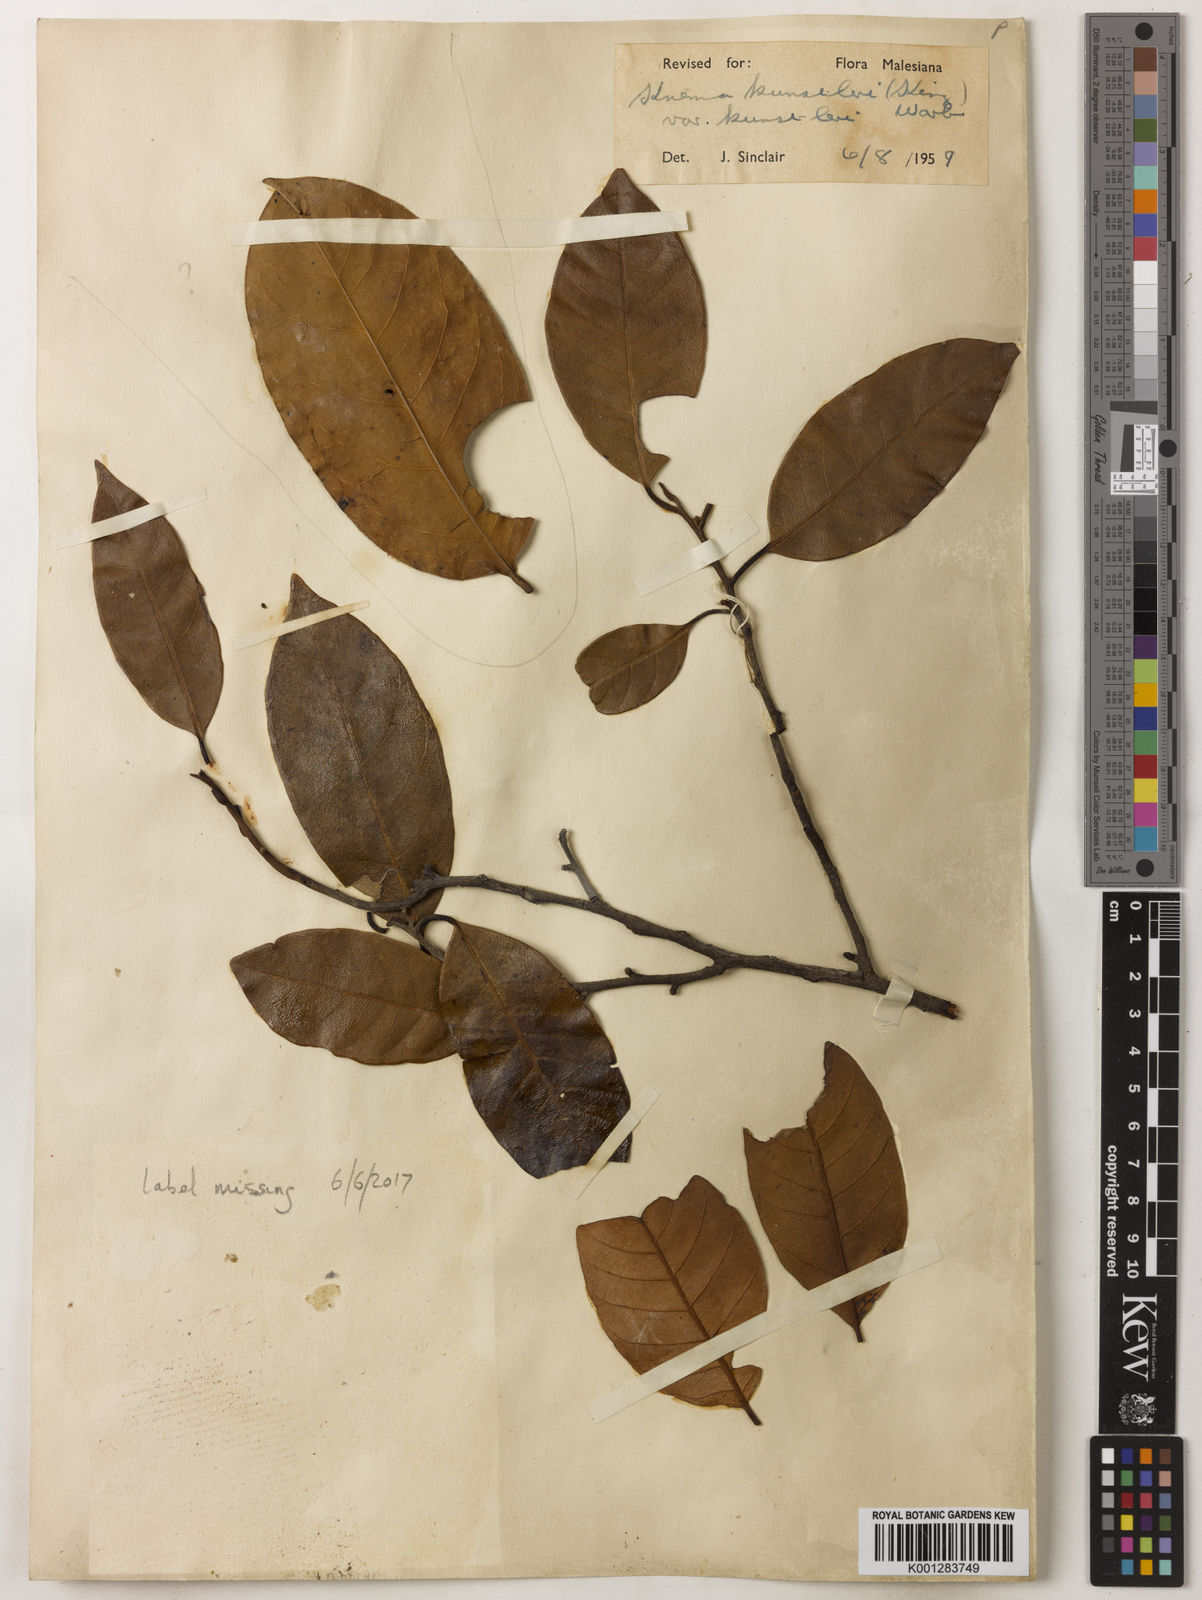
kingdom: Plantae
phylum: Tracheophyta
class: Magnoliopsida
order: Magnoliales
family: Myristicaceae
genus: Knema
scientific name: Knema kunstleri
